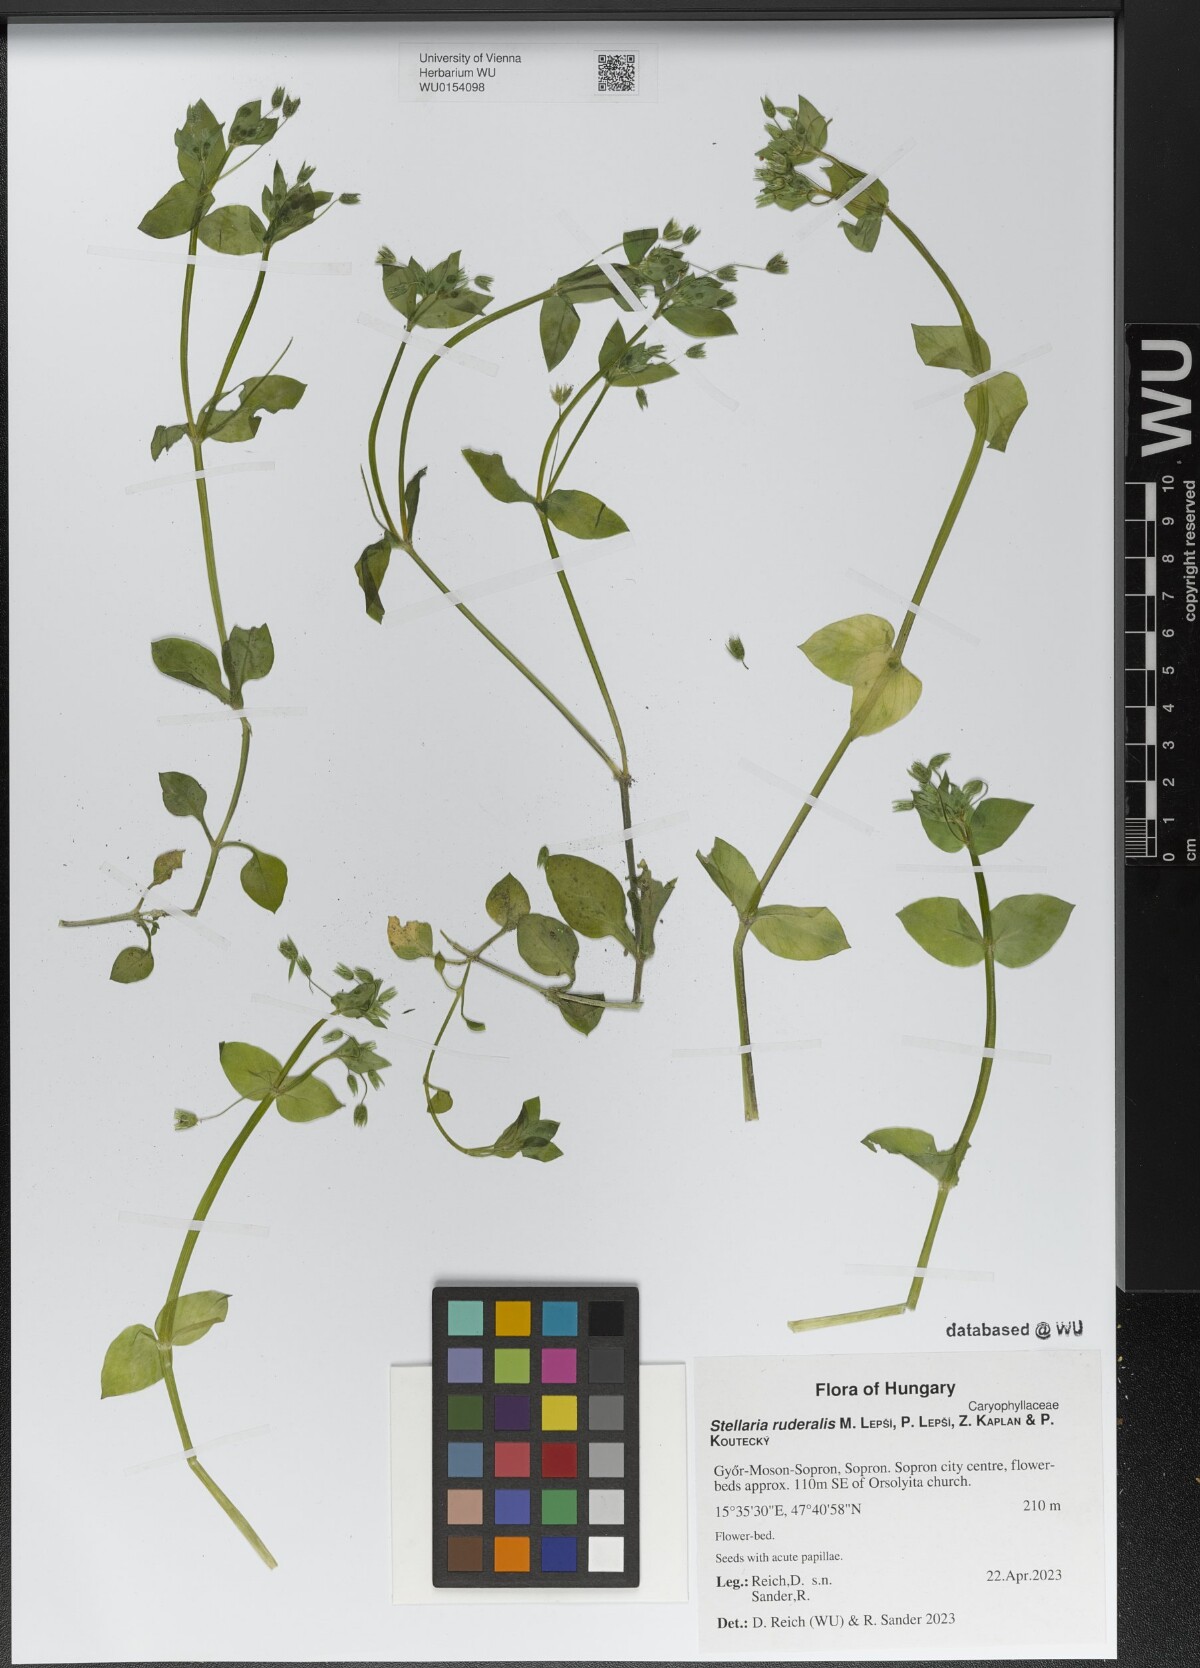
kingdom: Plantae
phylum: Tracheophyta
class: Magnoliopsida
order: Caryophyllales
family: Caryophyllaceae
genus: Stellaria
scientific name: Stellaria ruderalis
